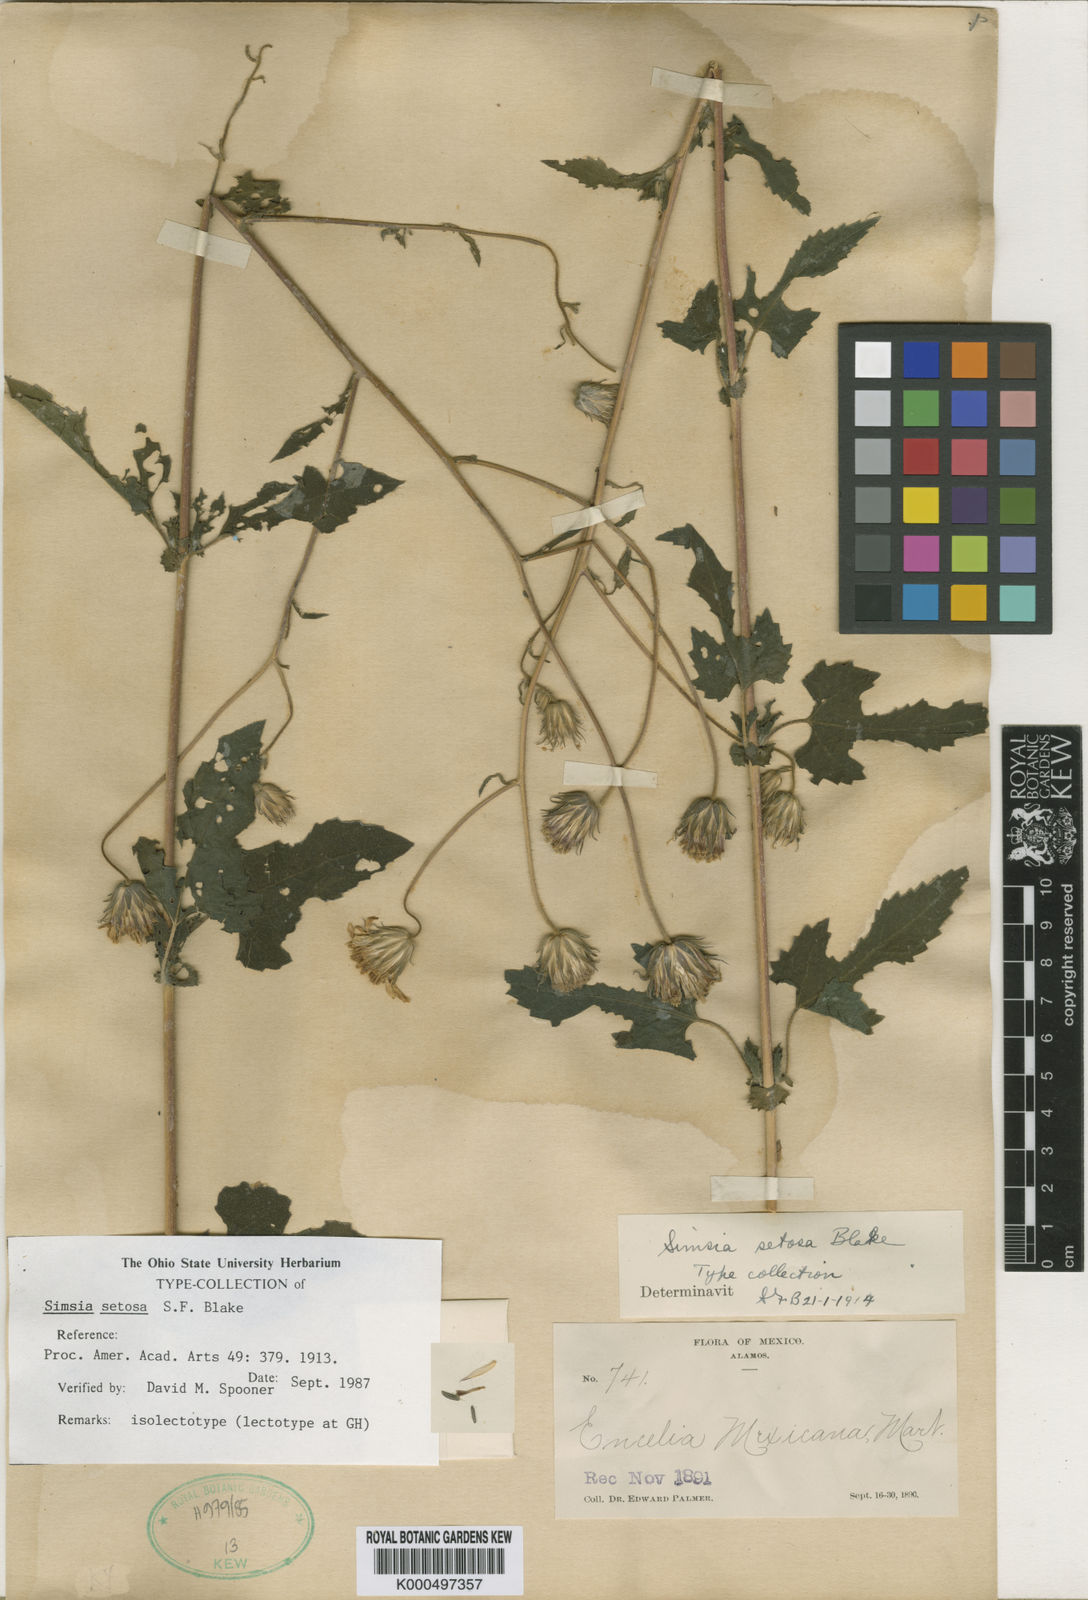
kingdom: Plantae
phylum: Tracheophyta
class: Magnoliopsida
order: Asterales
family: Asteraceae
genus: Simsia
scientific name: Simsia setosa
